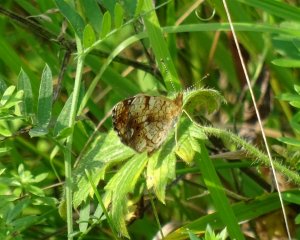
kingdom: Animalia
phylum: Arthropoda
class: Insecta
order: Lepidoptera
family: Nymphalidae
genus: Phyciodes
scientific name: Phyciodes tharos
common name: Pearl Crescent
